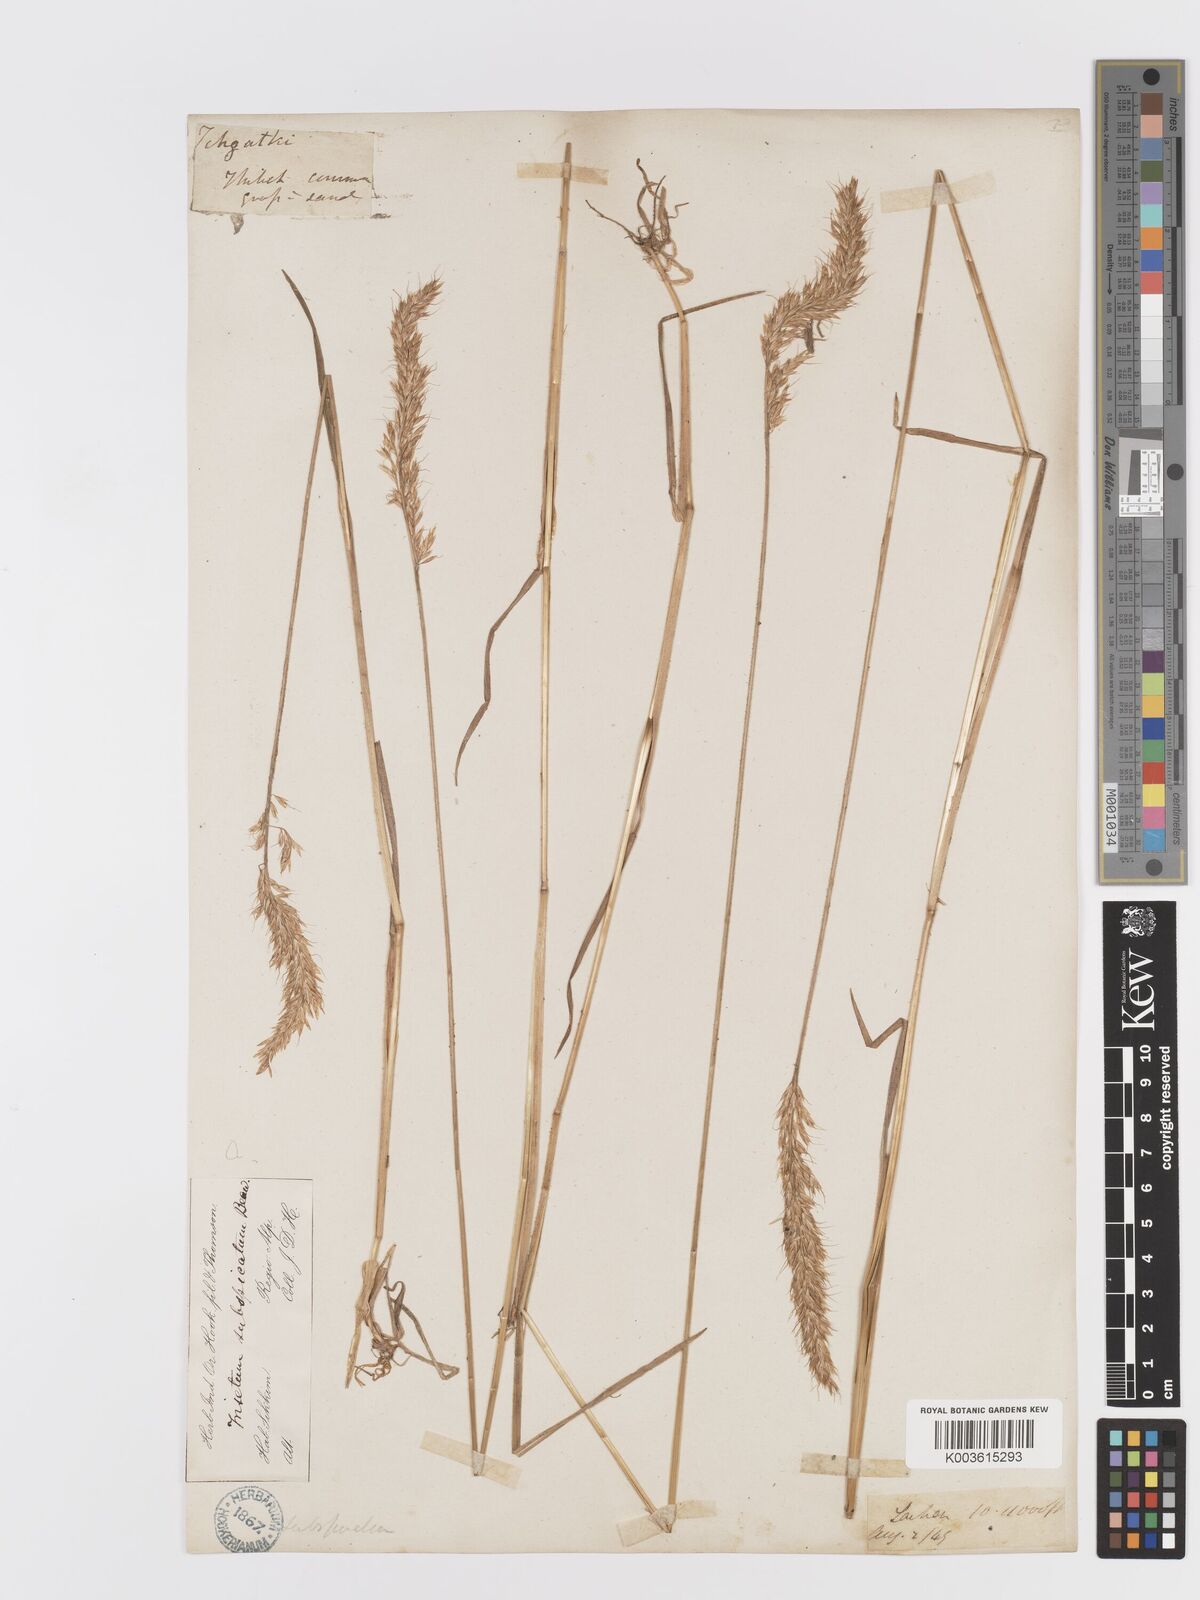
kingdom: Plantae
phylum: Tracheophyta
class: Liliopsida
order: Poales
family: Poaceae
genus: Koeleria
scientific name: Koeleria spicata
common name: Mountain trisetum
